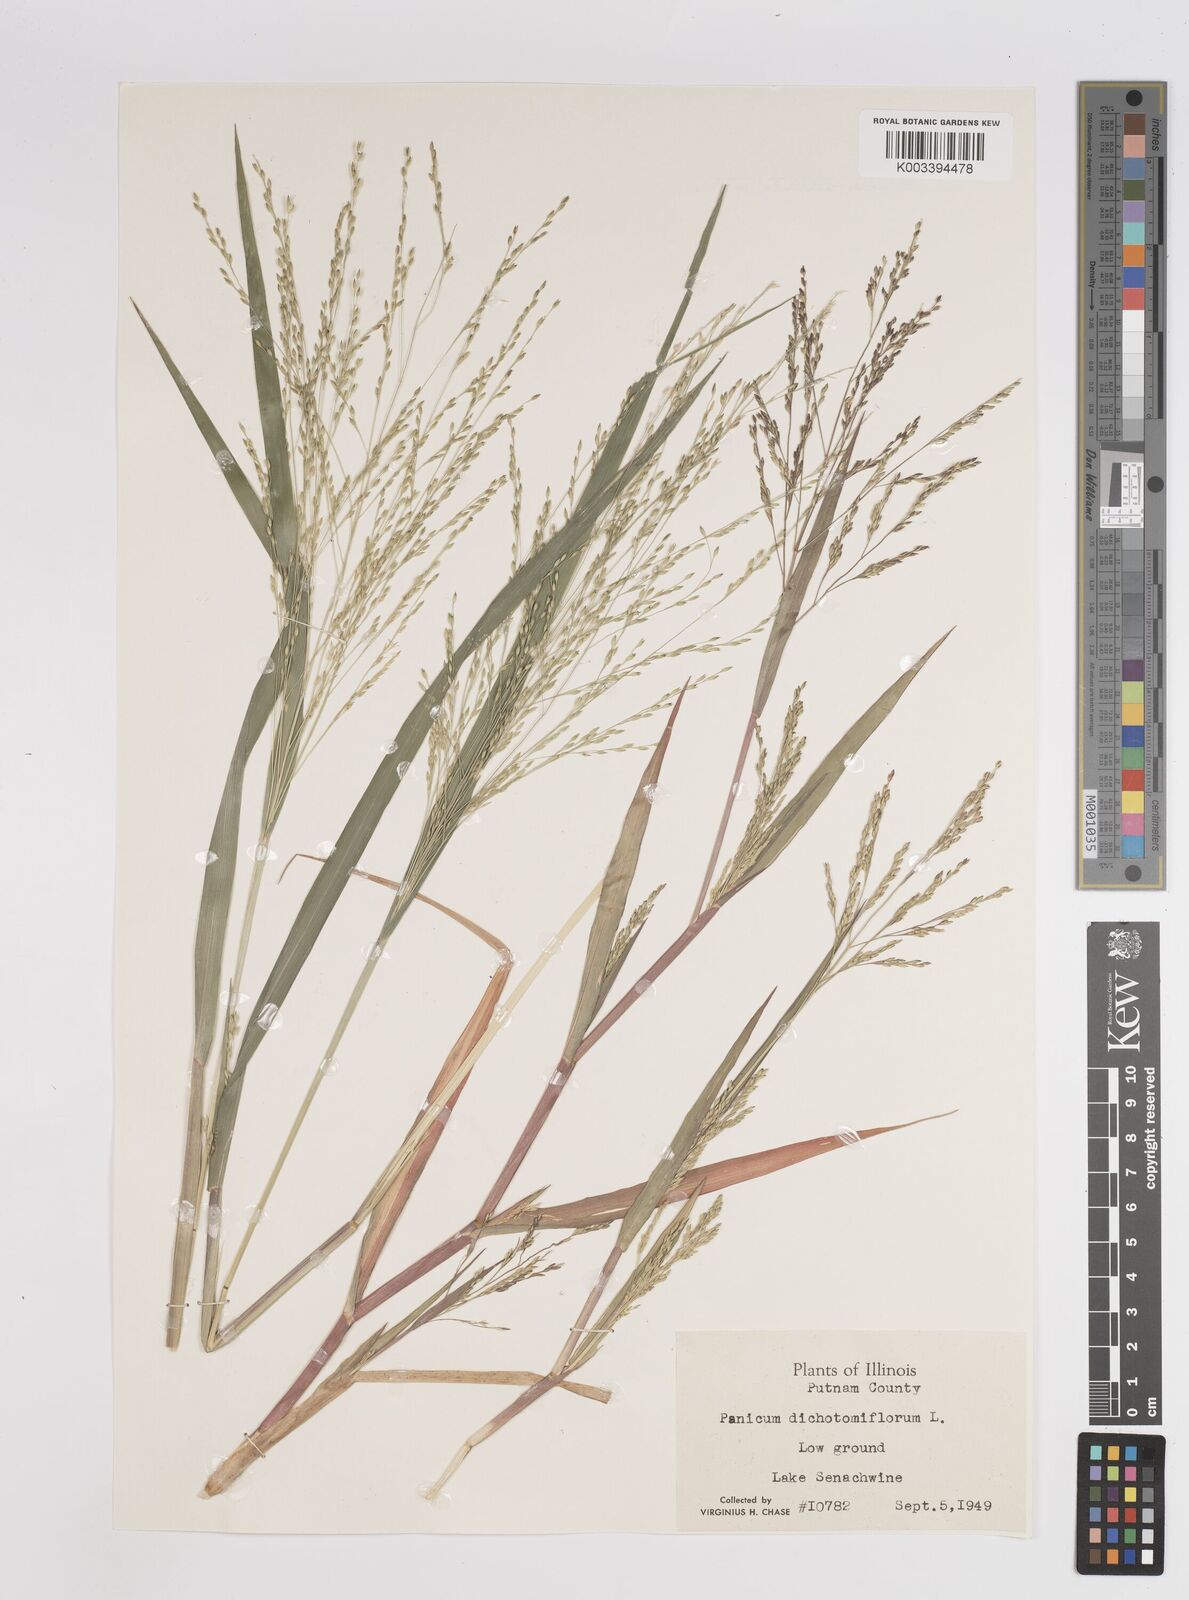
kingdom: Plantae
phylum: Tracheophyta
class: Liliopsida
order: Poales
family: Poaceae
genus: Panicum
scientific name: Panicum dichotomiflorum
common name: Autumn millet
